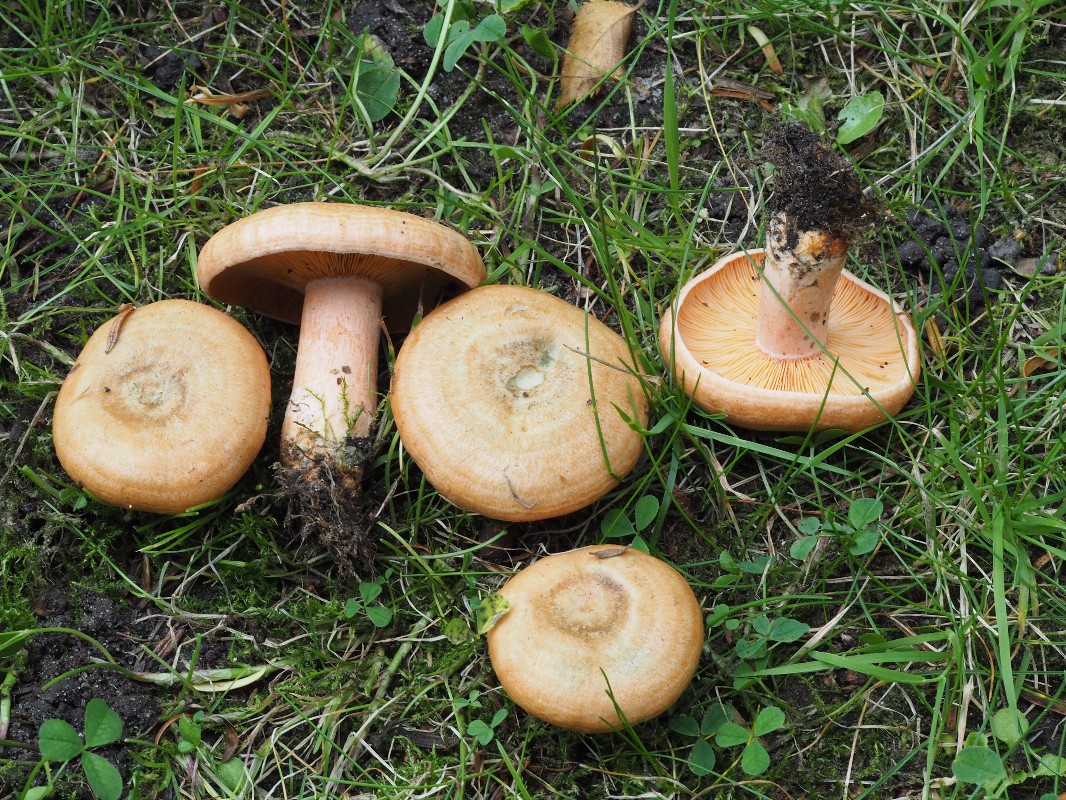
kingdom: Fungi
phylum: Basidiomycota
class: Agaricomycetes
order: Russulales
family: Russulaceae
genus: Lactarius
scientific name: Lactarius deterrimus
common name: gran-mælkehat
